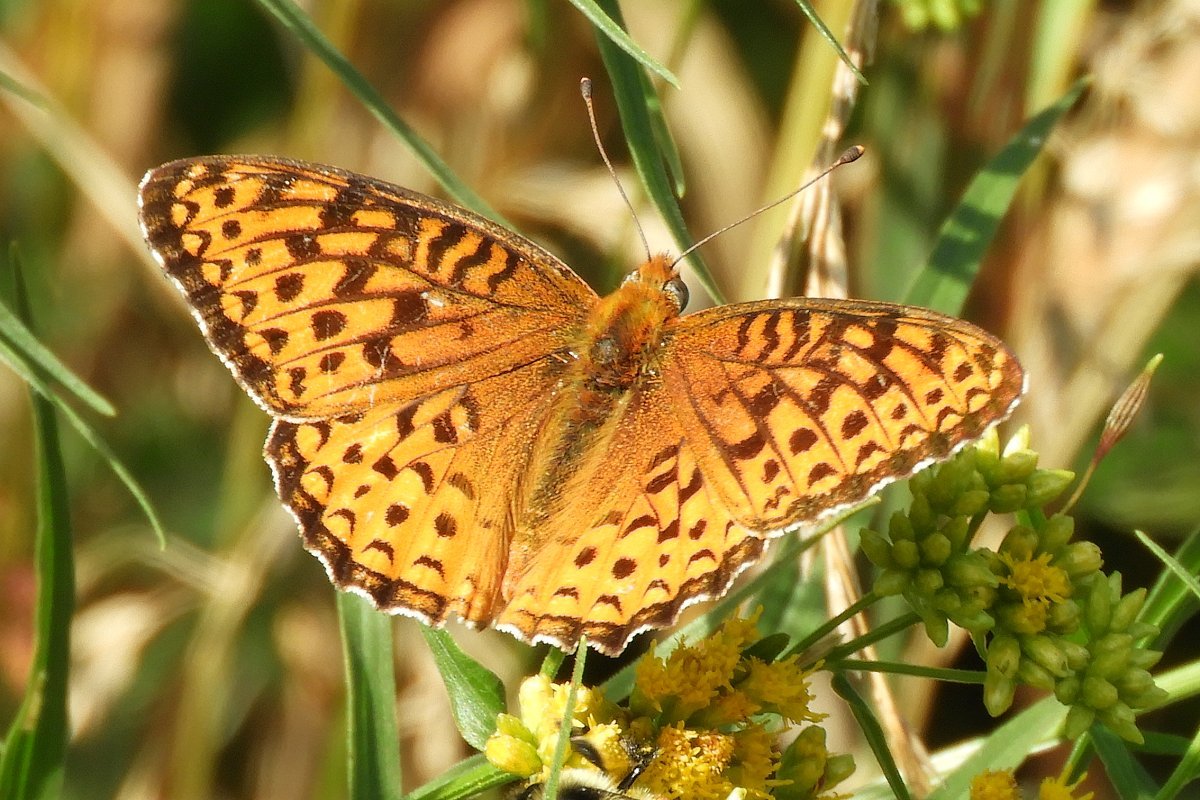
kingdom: Animalia
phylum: Arthropoda
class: Insecta
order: Lepidoptera
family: Nymphalidae
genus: Speyeria
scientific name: Speyeria atlantis
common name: Atlantis Fritillary
